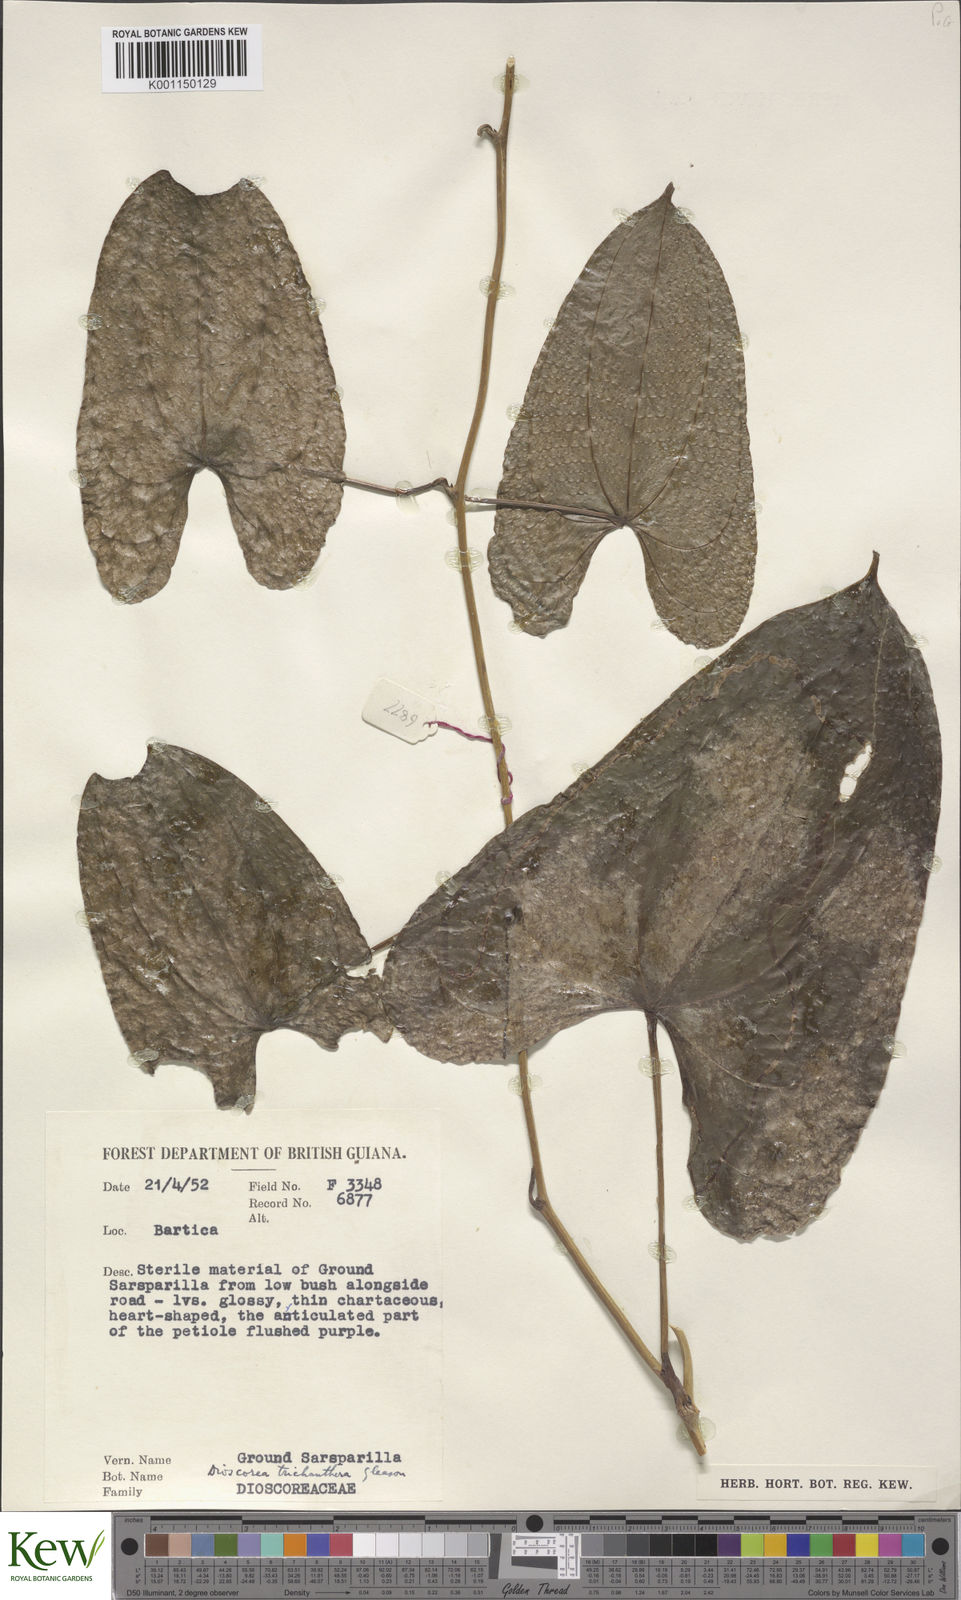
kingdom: Plantae
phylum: Tracheophyta
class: Liliopsida
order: Dioscoreales
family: Dioscoreaceae
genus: Dioscorea
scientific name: Dioscorea trichanthera
